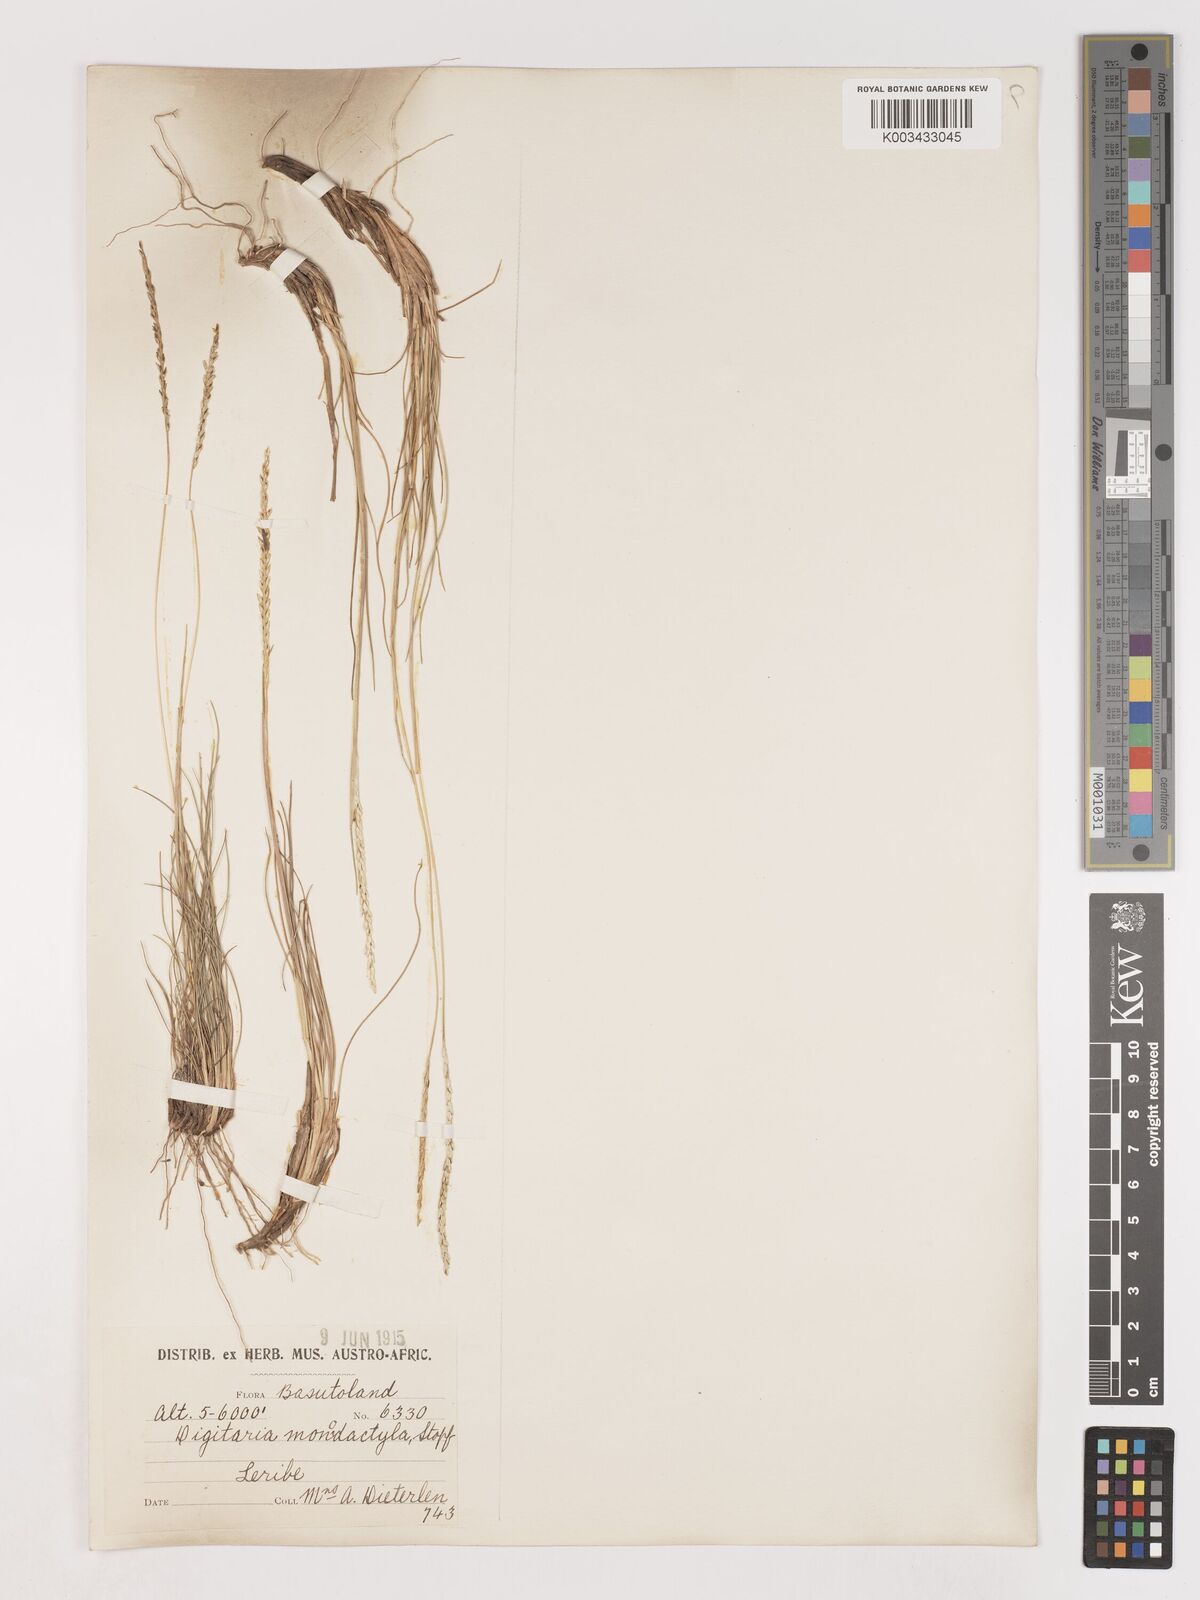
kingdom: Plantae
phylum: Tracheophyta
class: Liliopsida
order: Poales
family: Poaceae
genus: Digitaria
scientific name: Digitaria monodactyla
